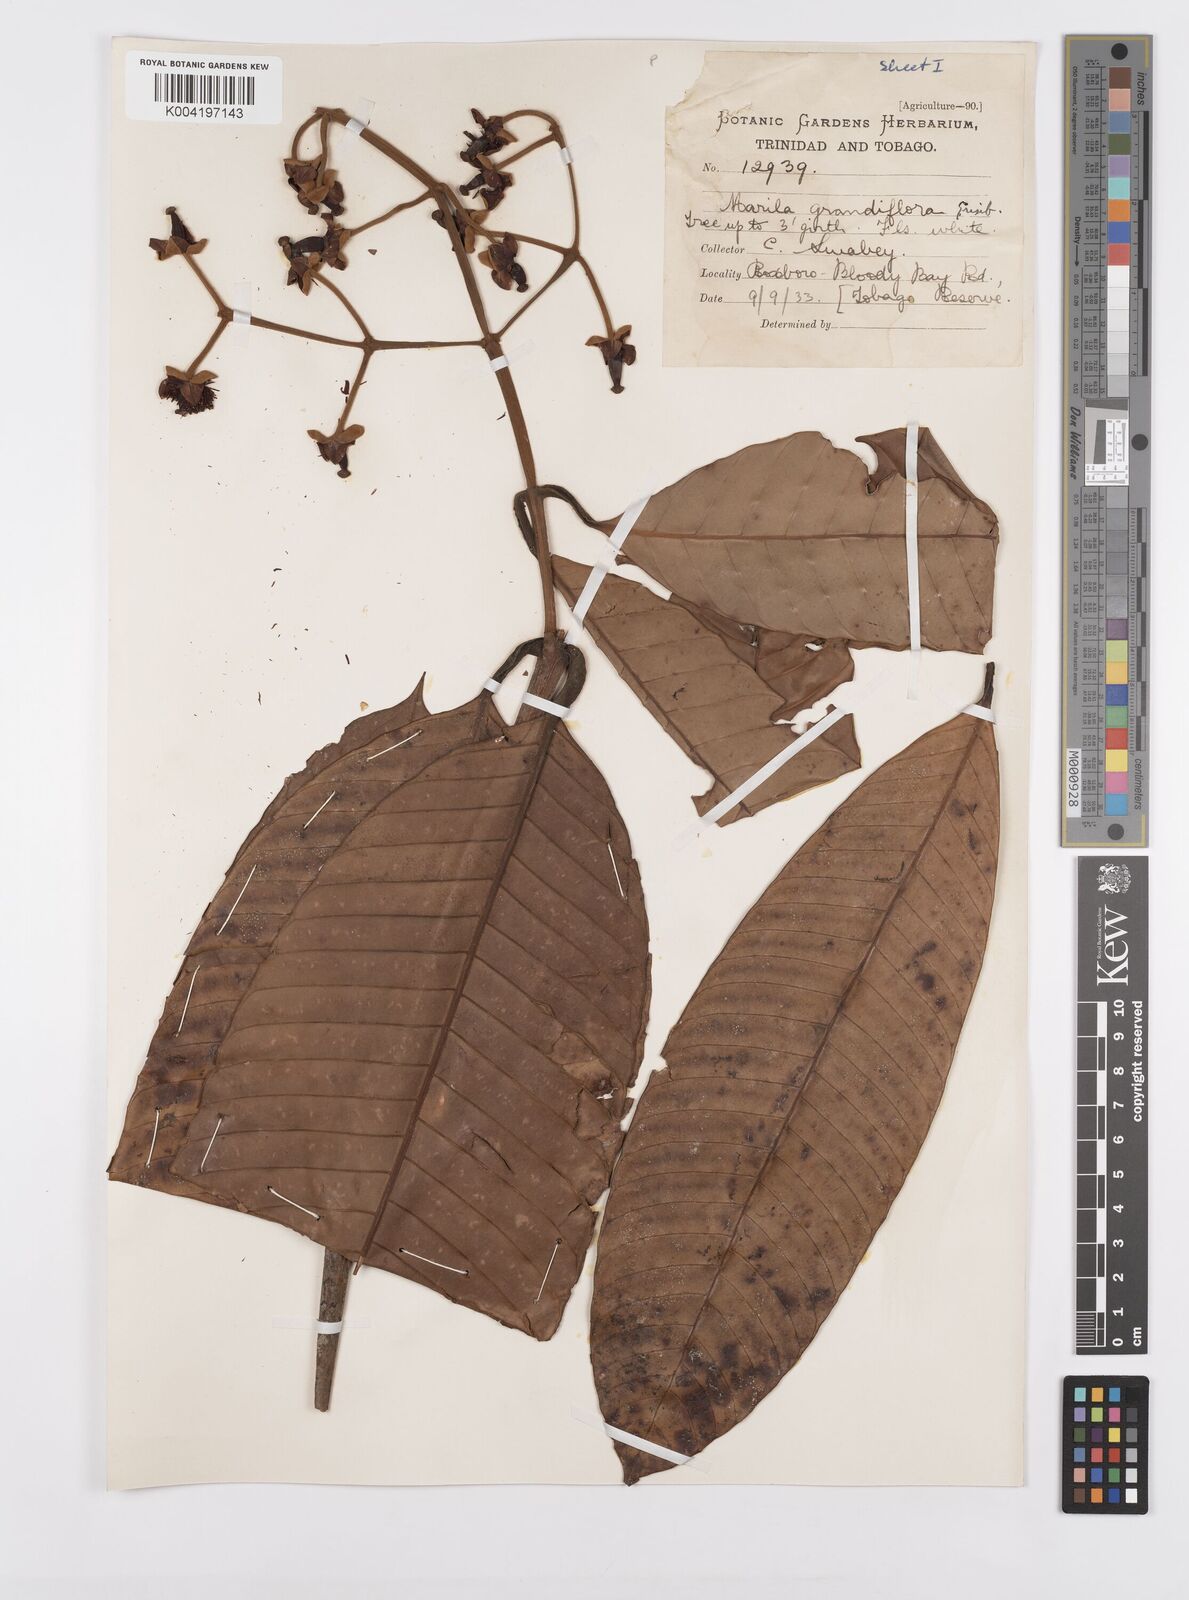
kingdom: Plantae
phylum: Tracheophyta
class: Magnoliopsida
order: Malpighiales
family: Calophyllaceae
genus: Marila
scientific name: Marila grandiflora
